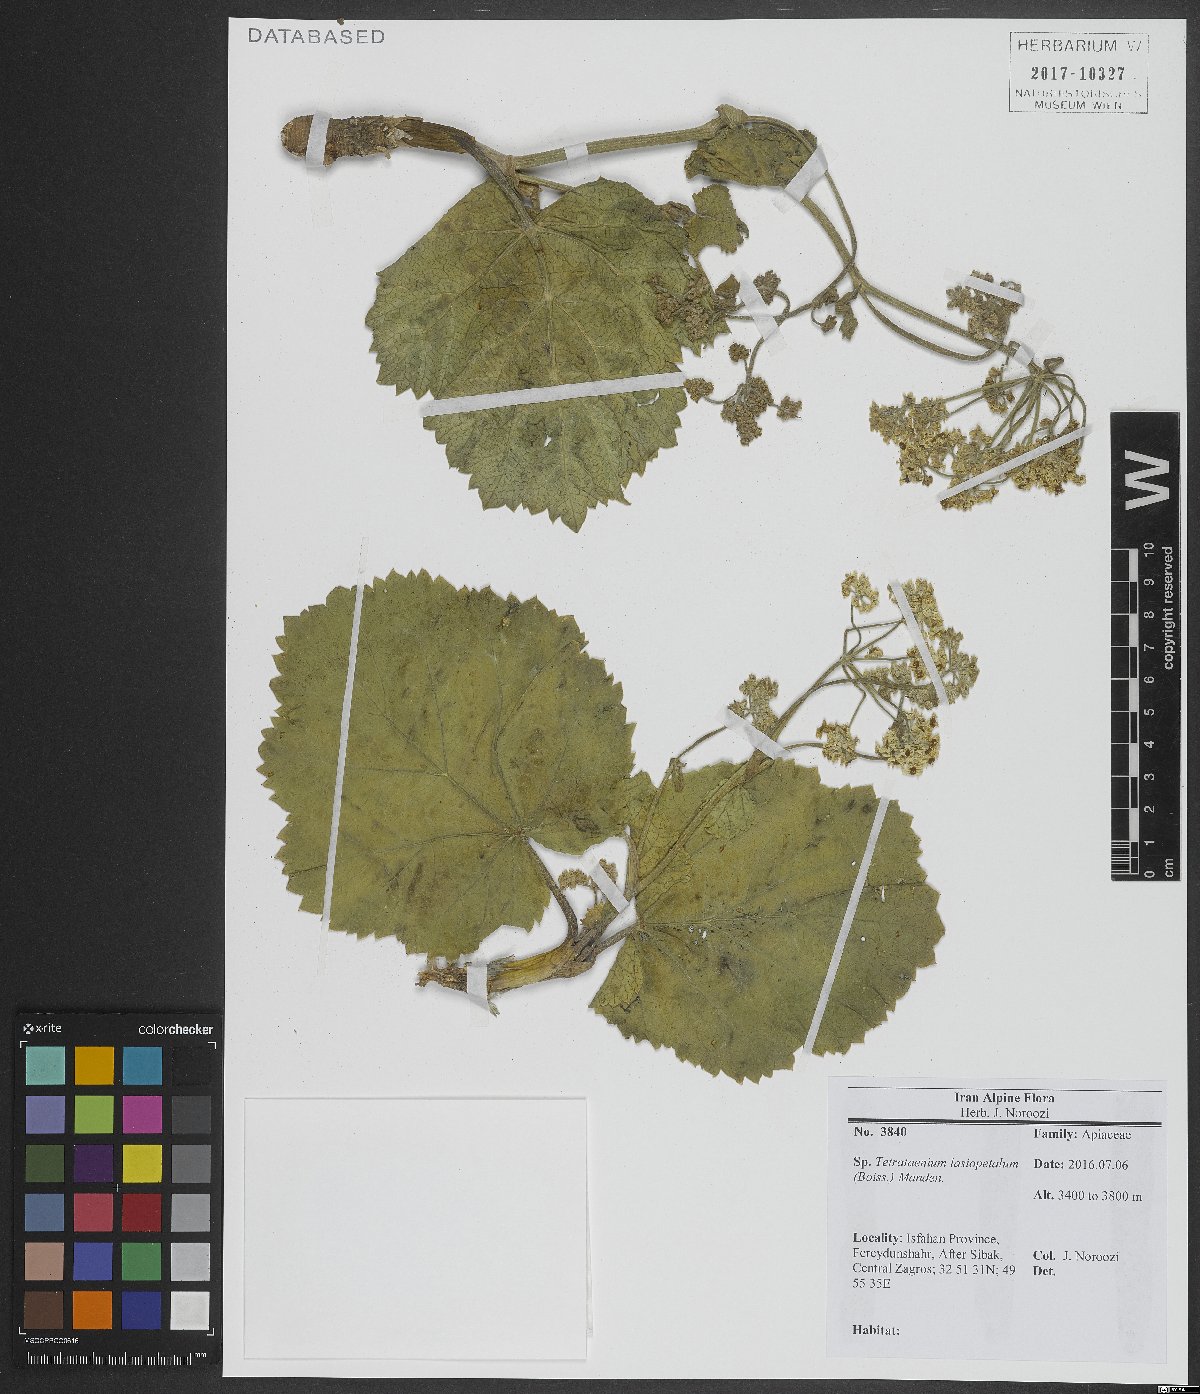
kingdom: Plantae
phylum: Tracheophyta
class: Magnoliopsida
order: Apiales
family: Apiaceae
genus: Tetrataenium
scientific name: Tetrataenium lasiopetalum
